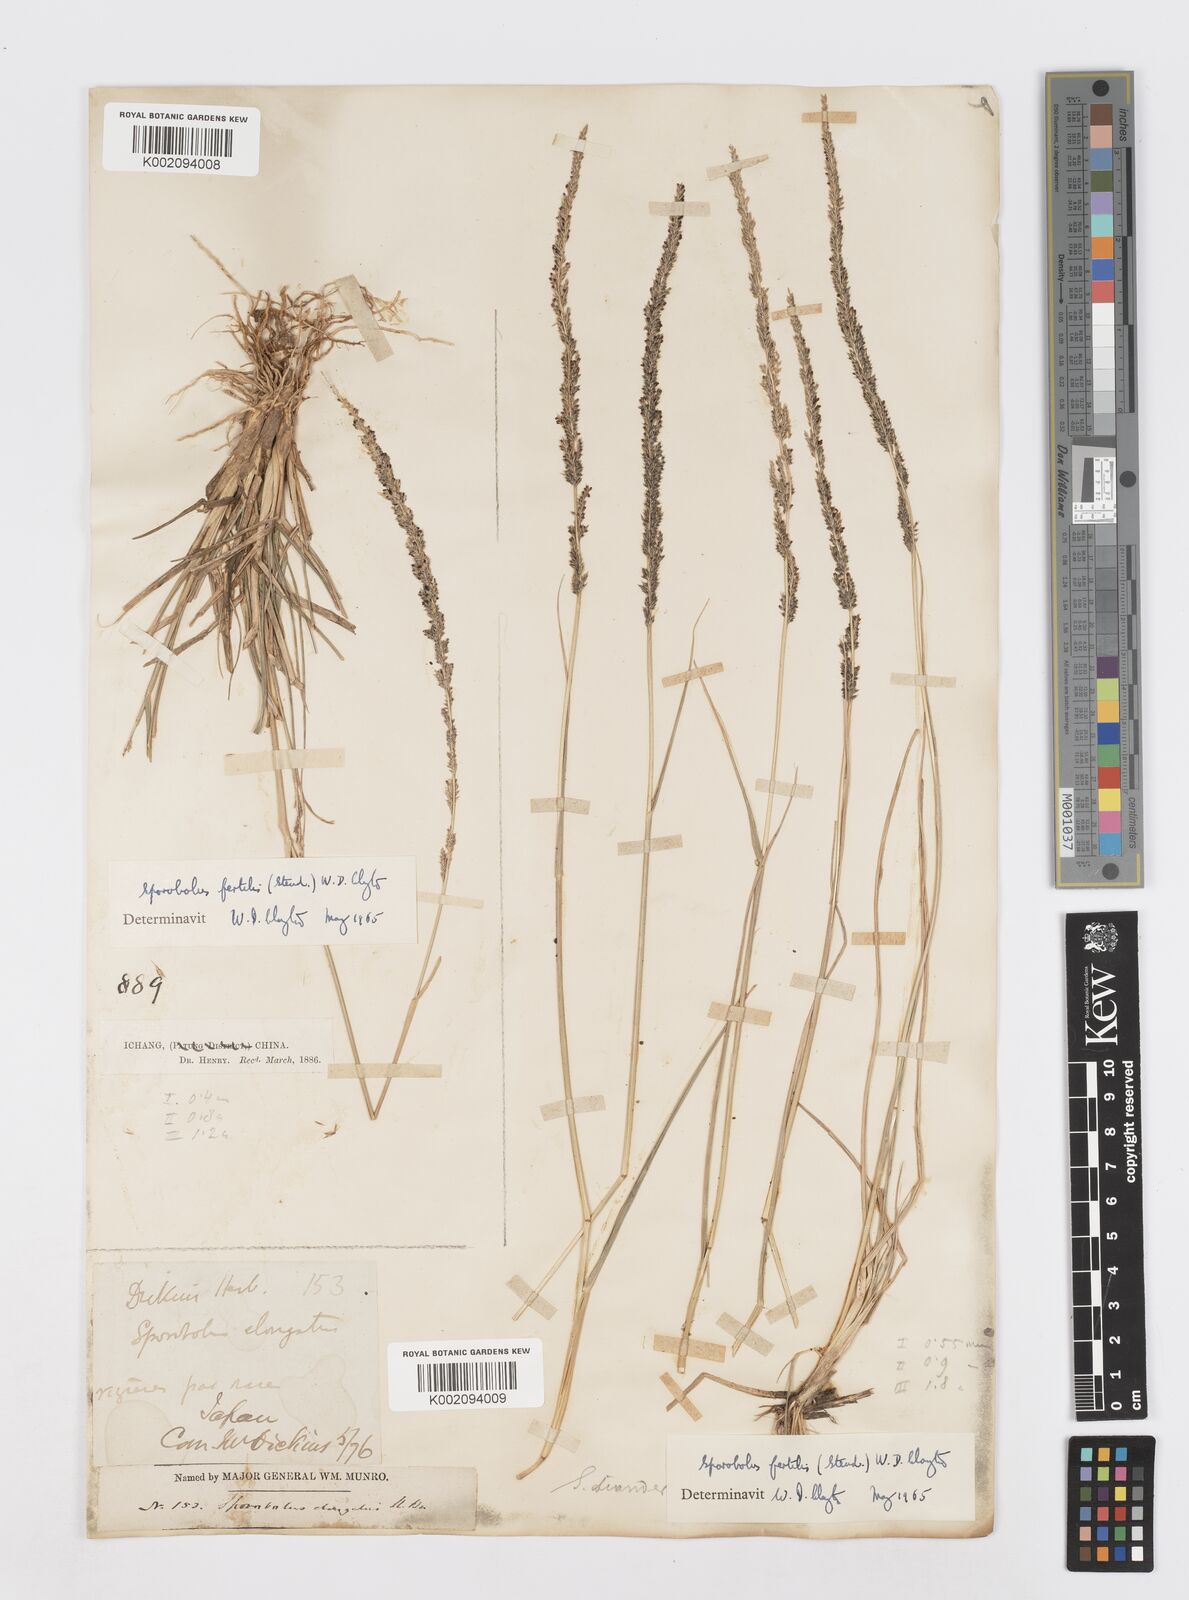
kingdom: Plantae
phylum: Tracheophyta
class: Liliopsida
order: Poales
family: Poaceae
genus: Sporobolus
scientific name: Sporobolus fertilis
